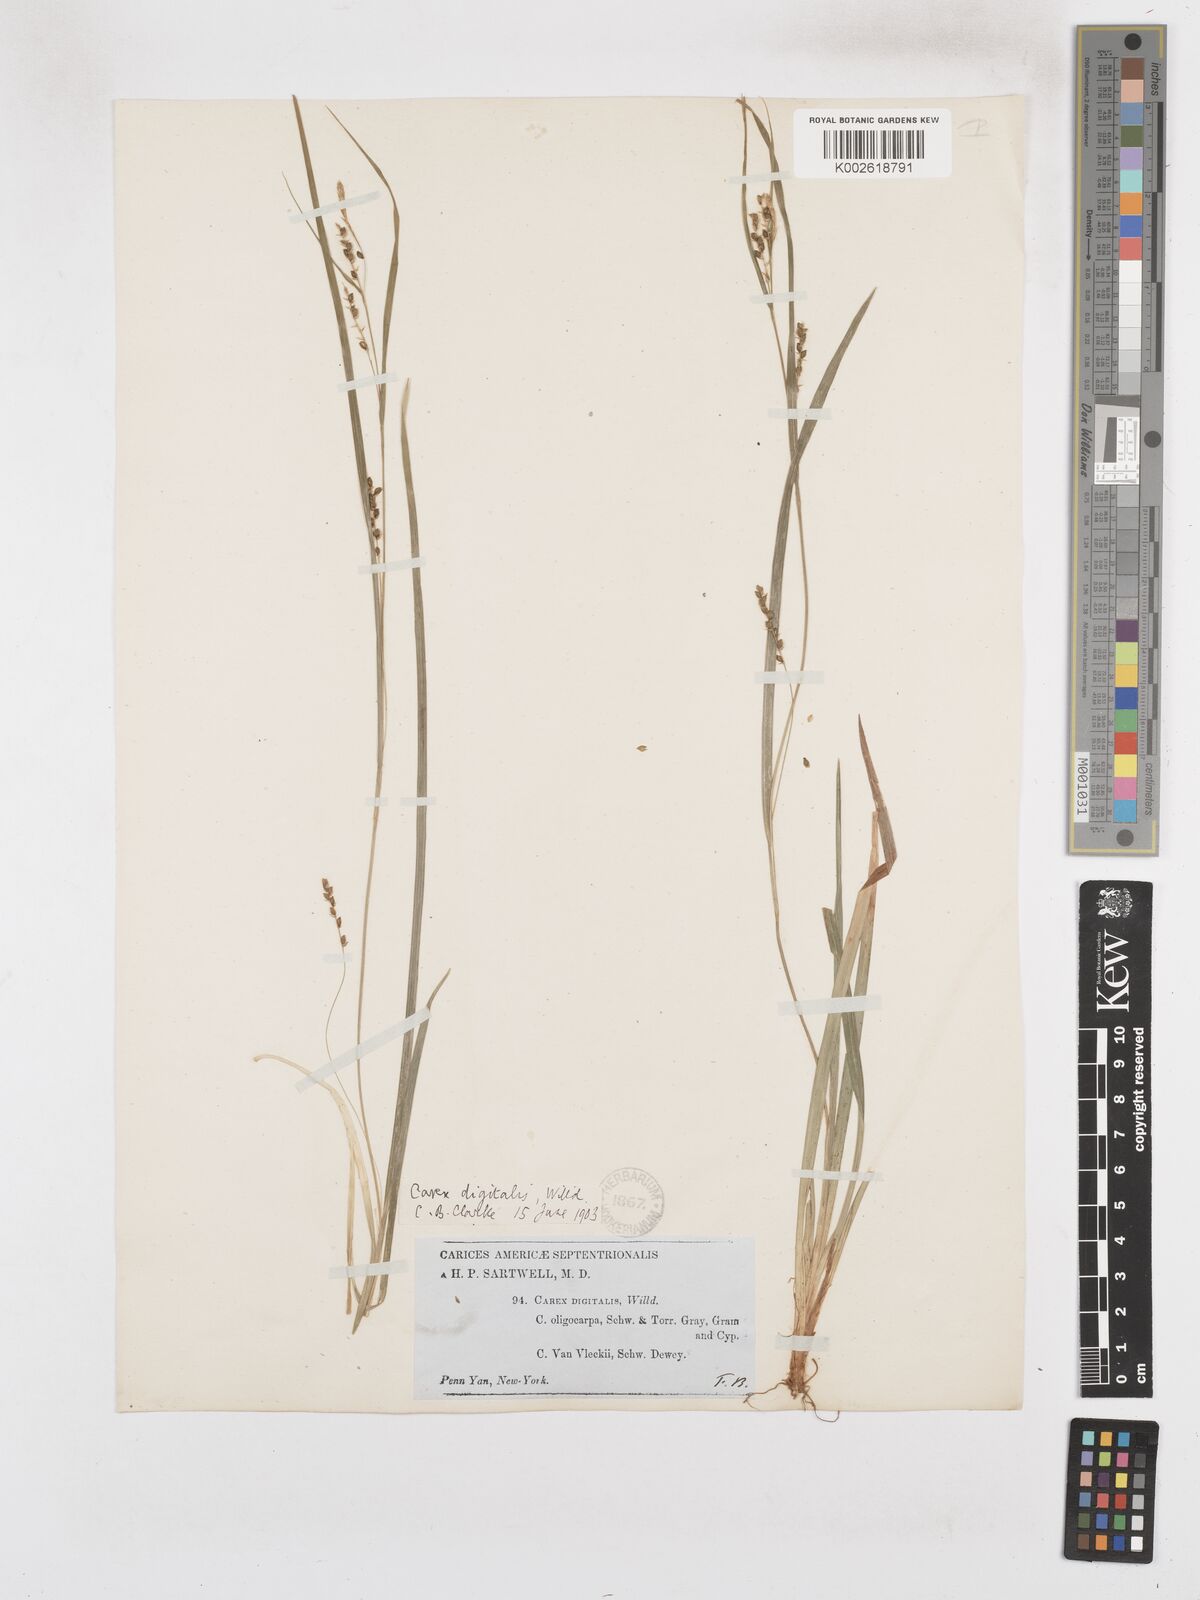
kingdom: Plantae
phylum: Tracheophyta
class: Liliopsida
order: Poales
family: Cyperaceae
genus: Carex
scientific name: Carex digitalis
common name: Slender wood sedge
